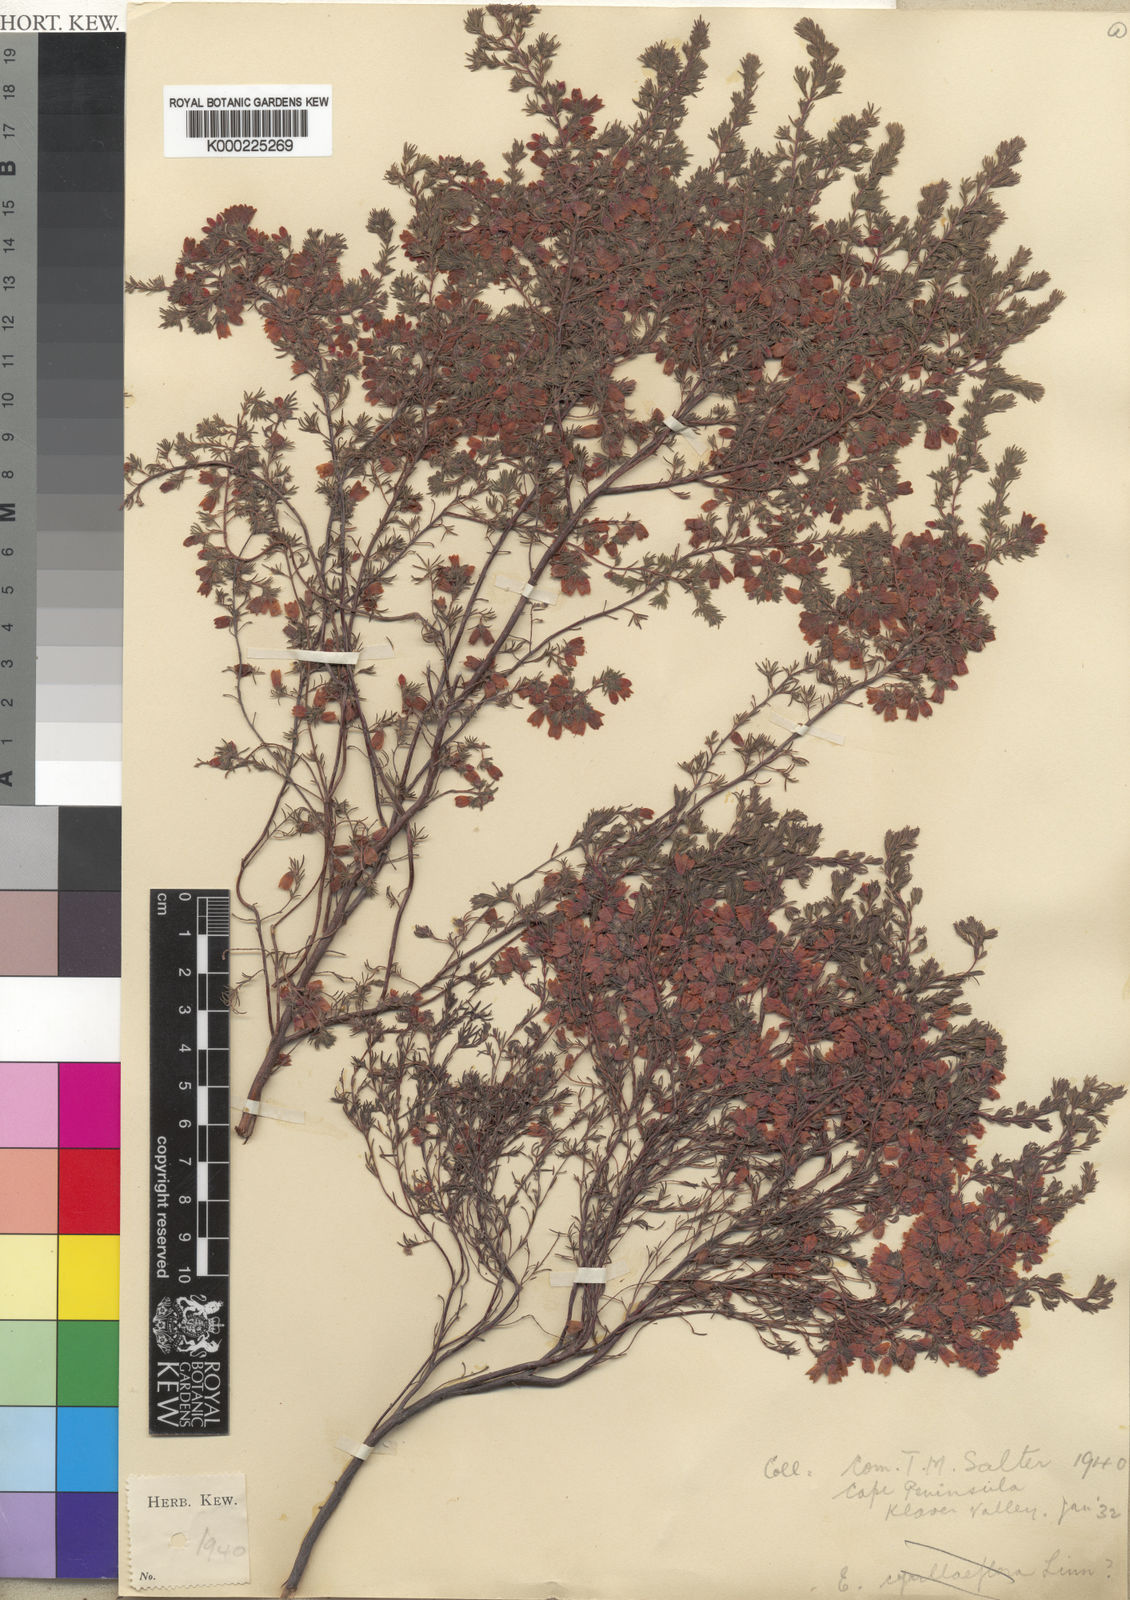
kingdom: Plantae
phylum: Tracheophyta
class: Magnoliopsida
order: Ericales
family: Ericaceae
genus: Erica
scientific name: Erica heleogena
